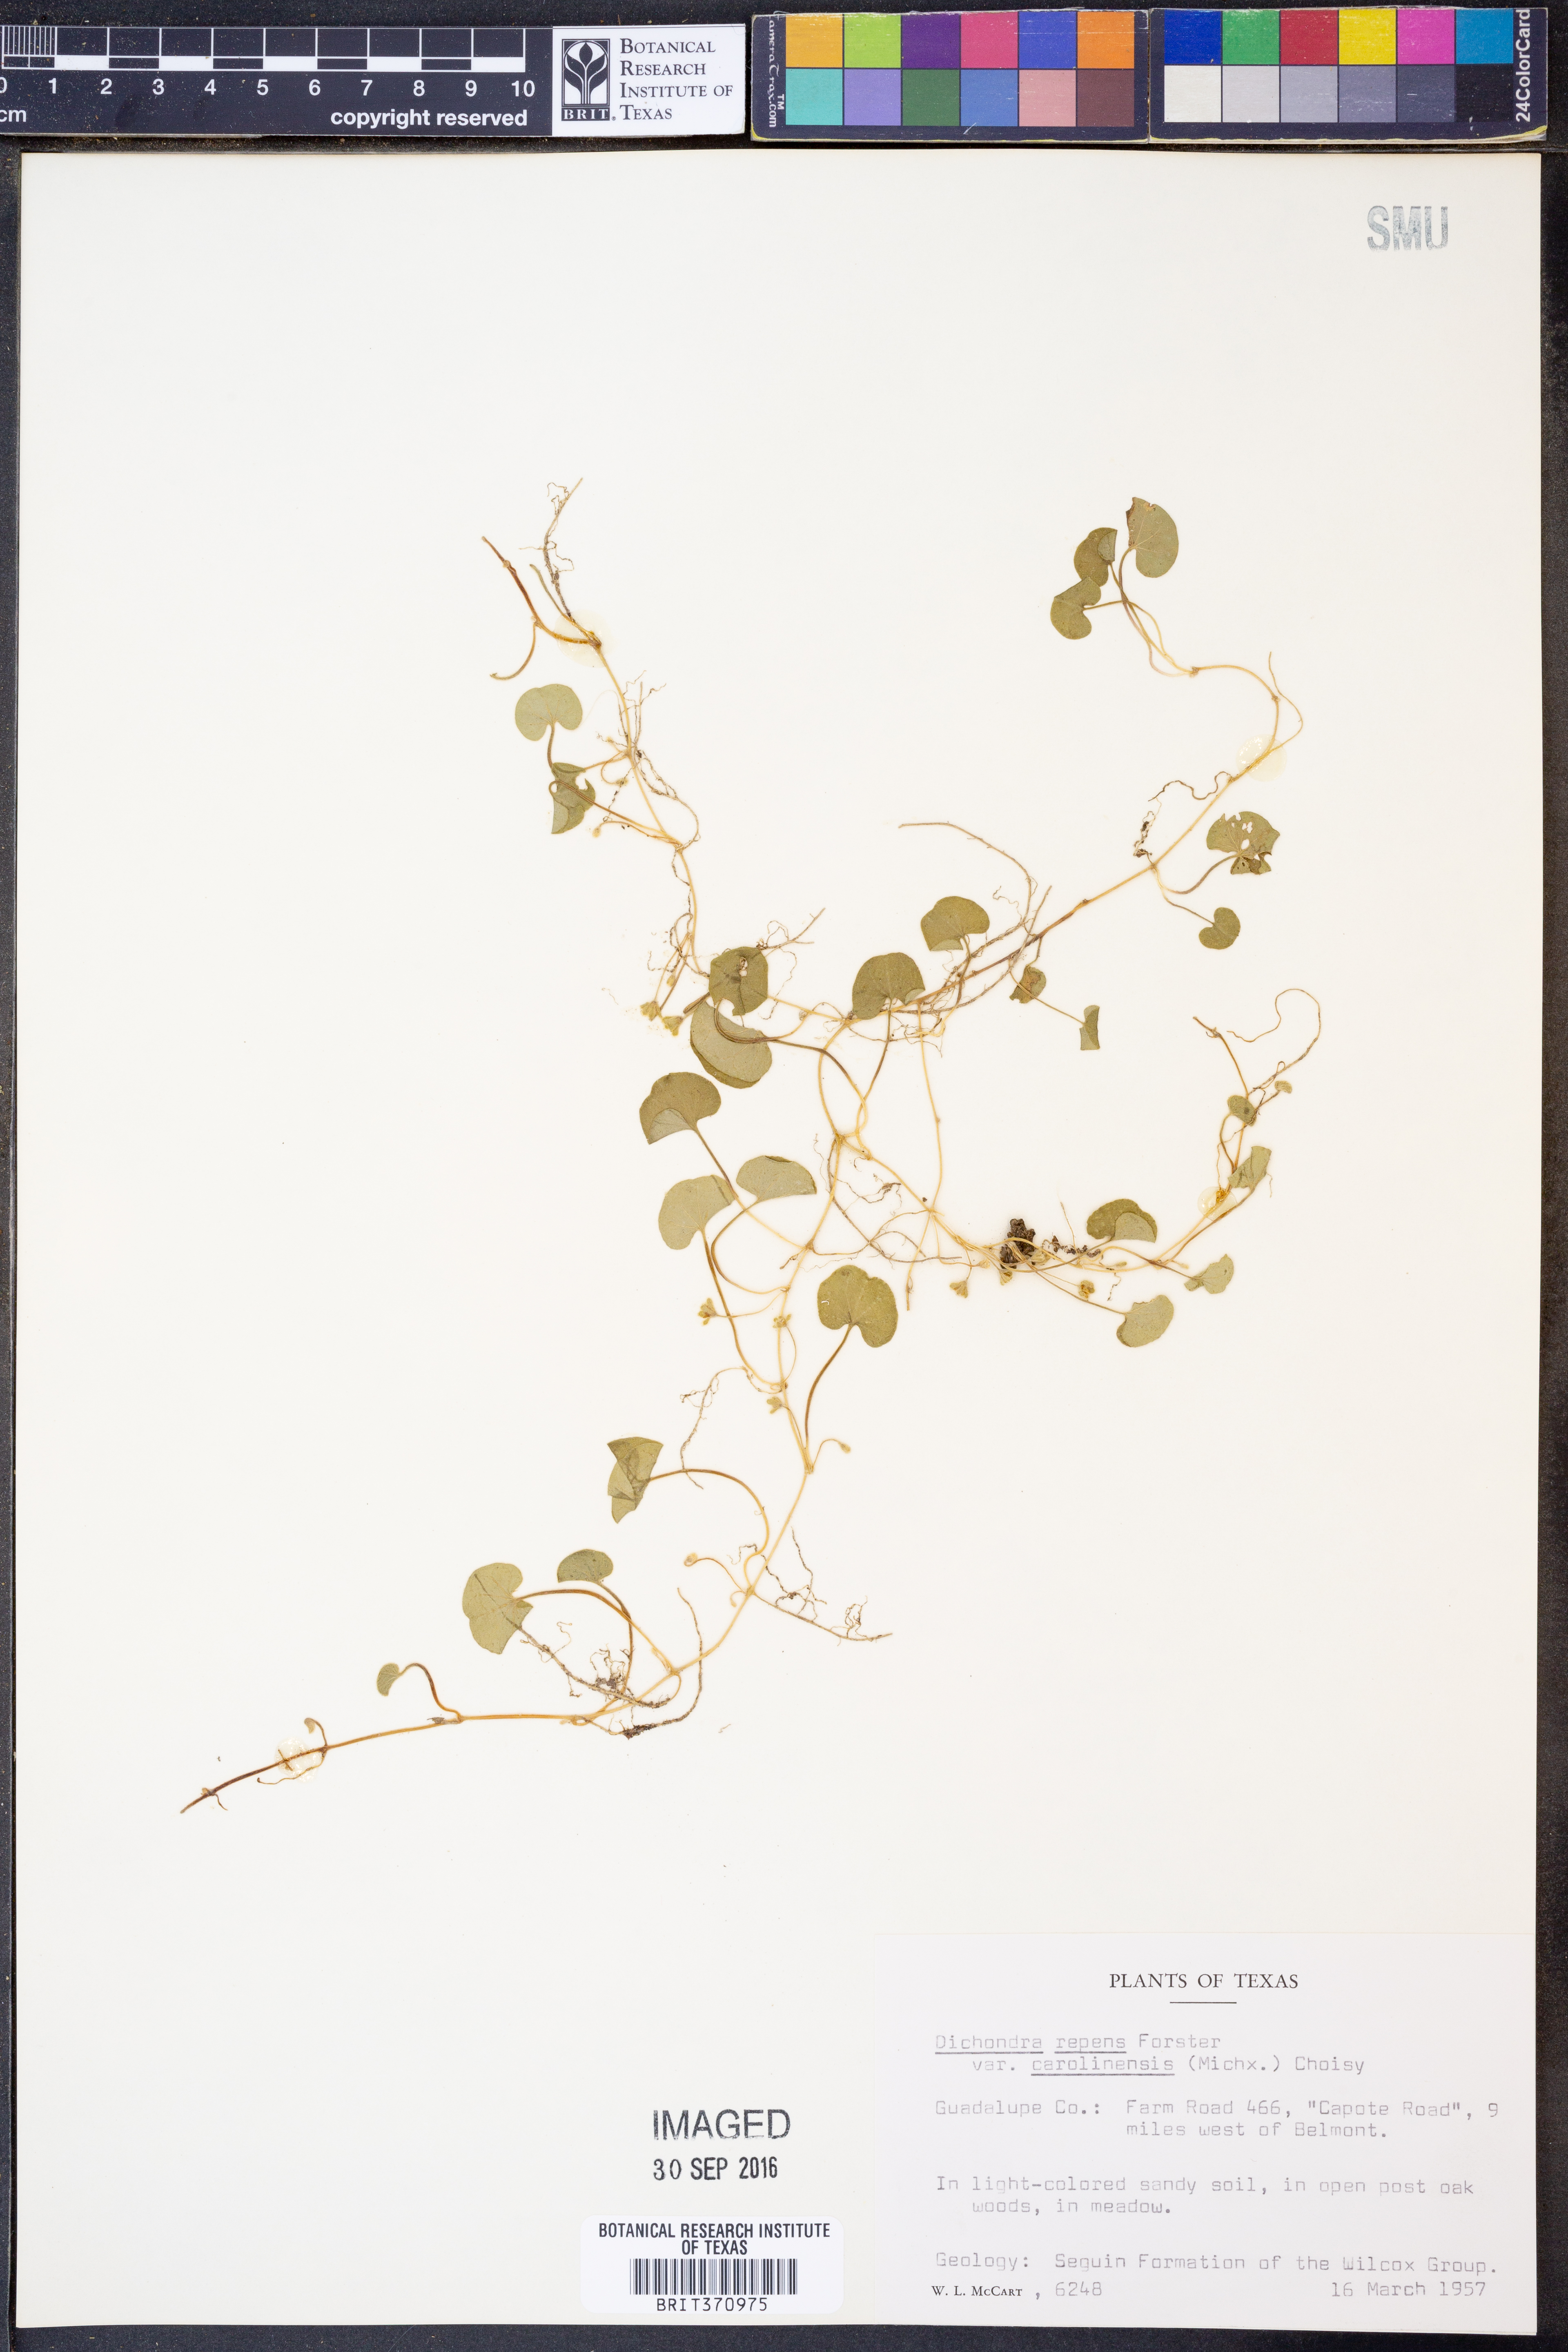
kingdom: Plantae
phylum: Tracheophyta
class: Magnoliopsida
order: Solanales
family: Convolvulaceae
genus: Dichondra
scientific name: Dichondra carolinensis
